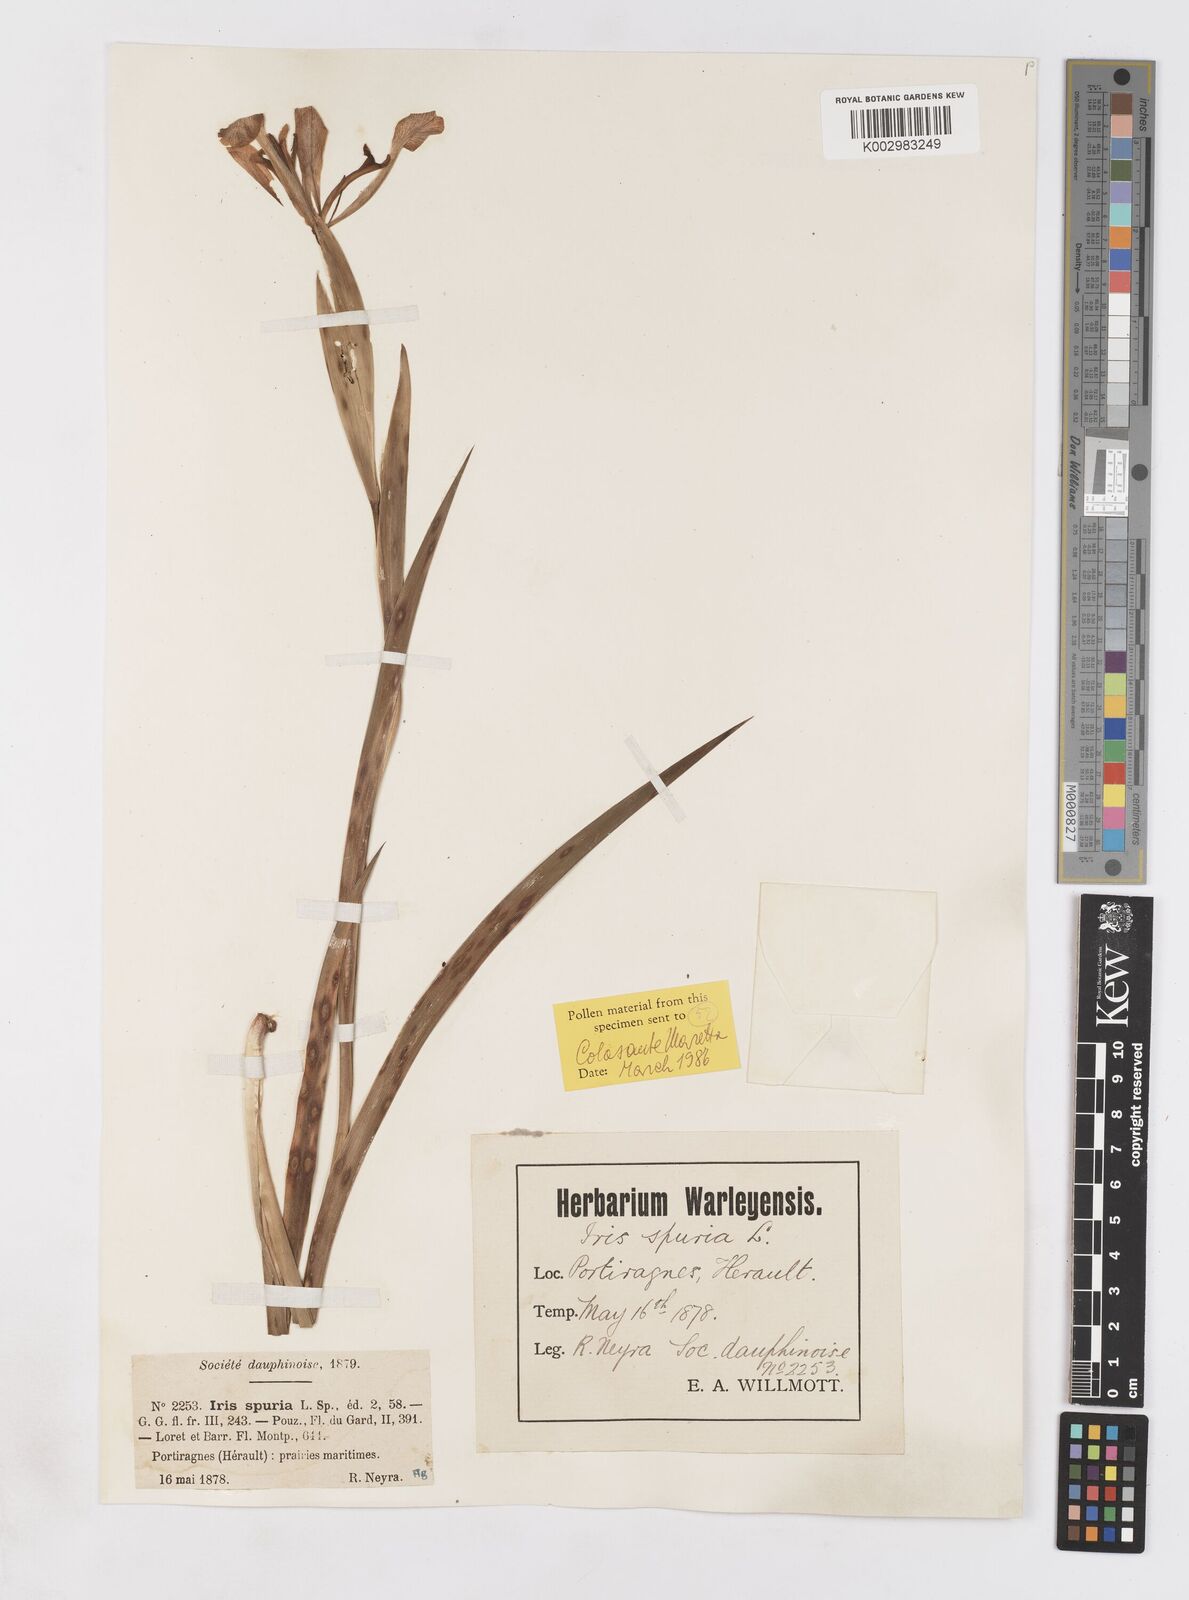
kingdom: Plantae
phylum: Tracheophyta
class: Liliopsida
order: Asparagales
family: Iridaceae
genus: Iris
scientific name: Iris spuria
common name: Blue iris
